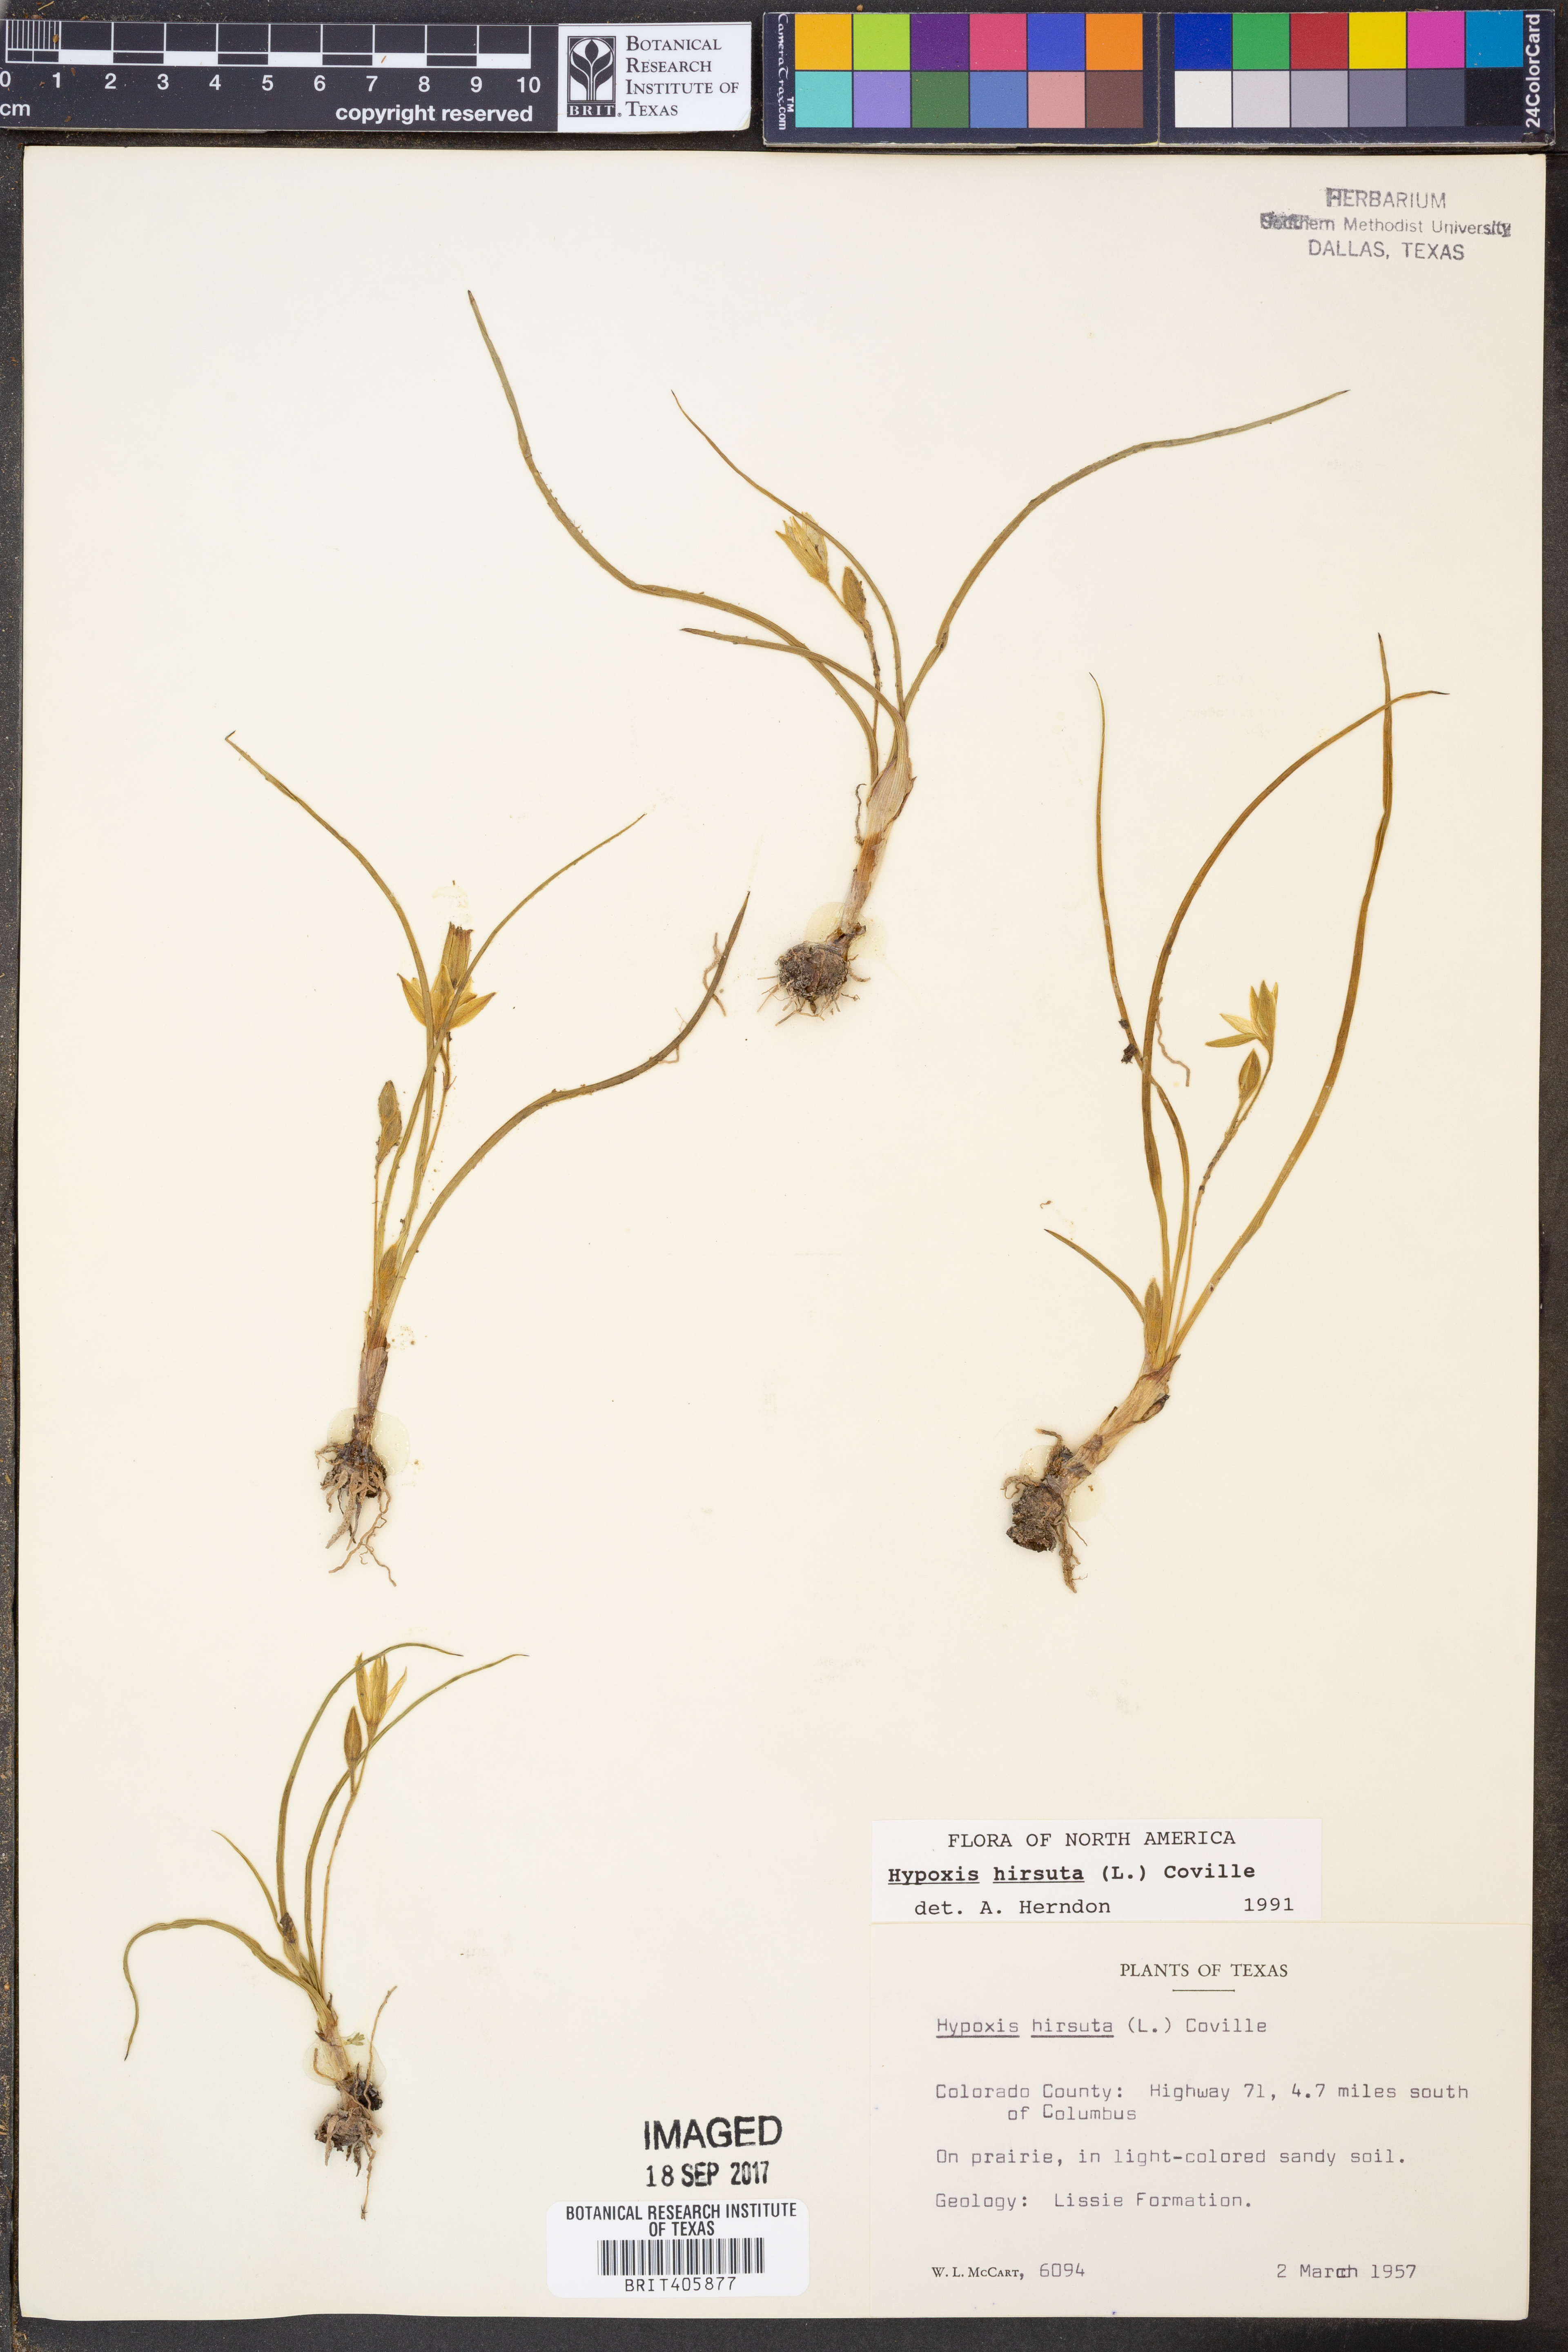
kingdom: Plantae
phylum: Tracheophyta
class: Liliopsida
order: Asparagales
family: Hypoxidaceae
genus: Hypoxis
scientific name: Hypoxis hirsuta
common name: Common goldstar
